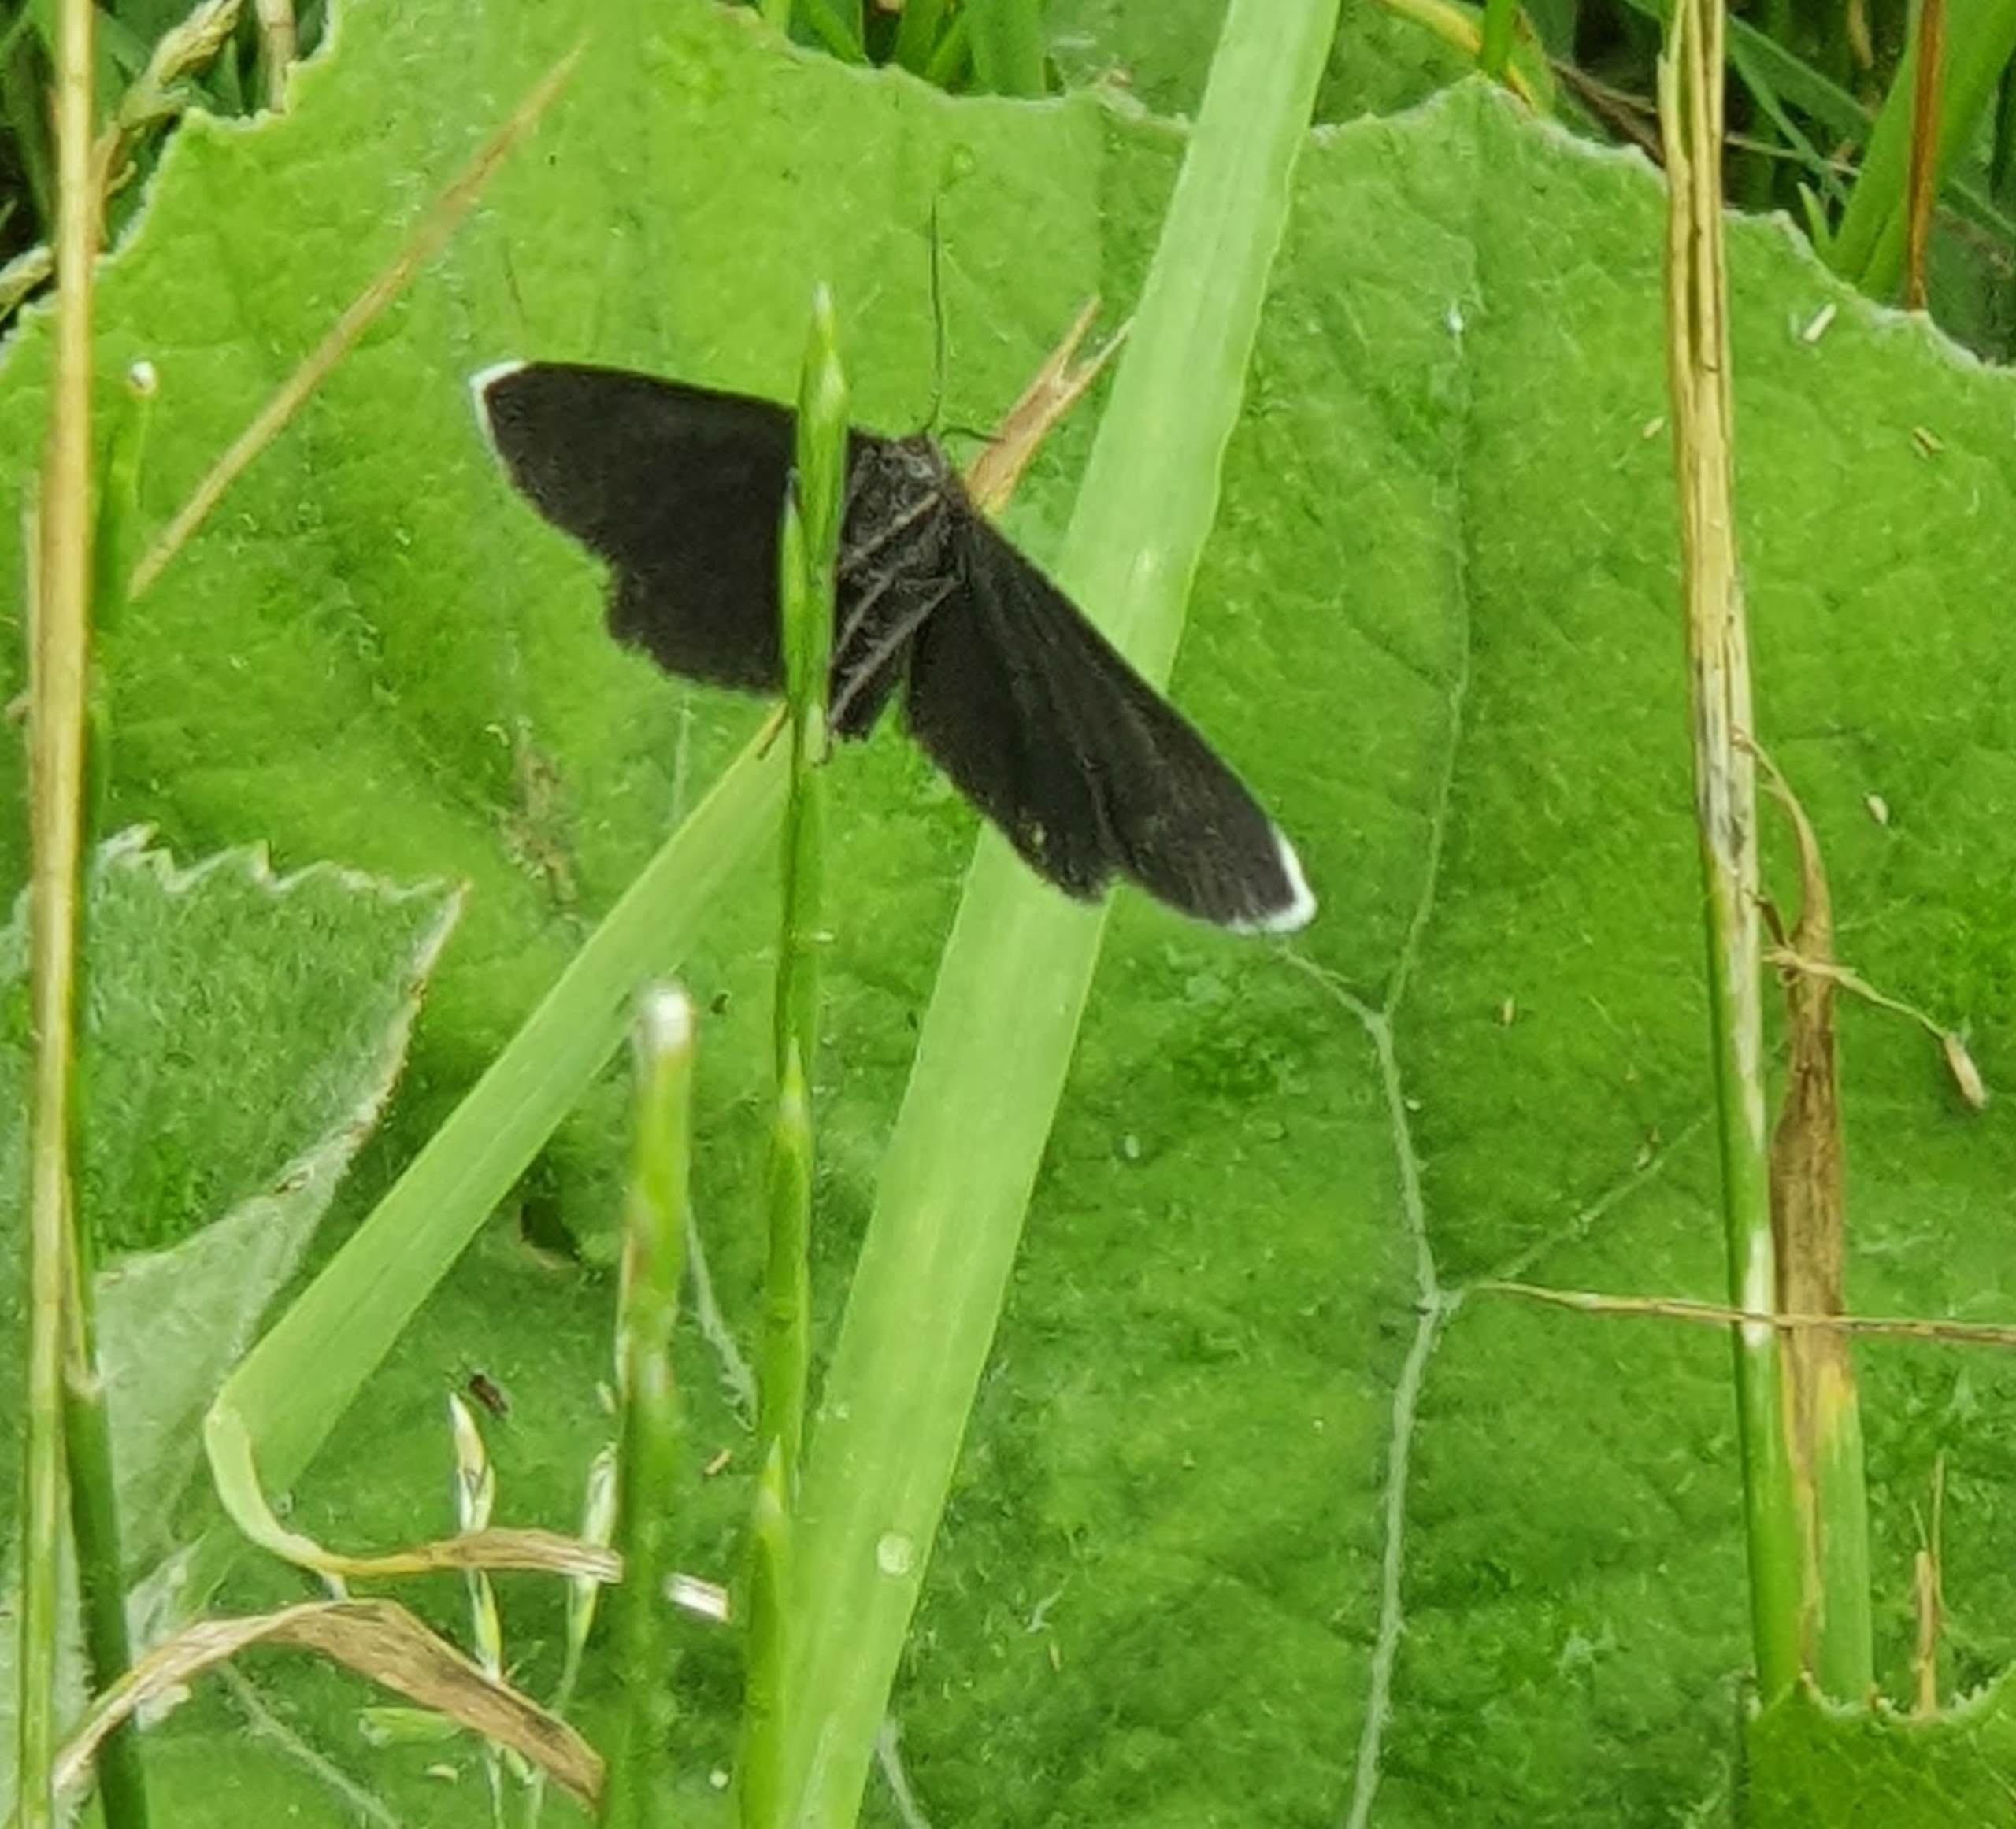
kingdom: Animalia
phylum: Arthropoda
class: Insecta
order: Lepidoptera
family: Geometridae
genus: Odezia
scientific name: Odezia atrata
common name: Sort måler
